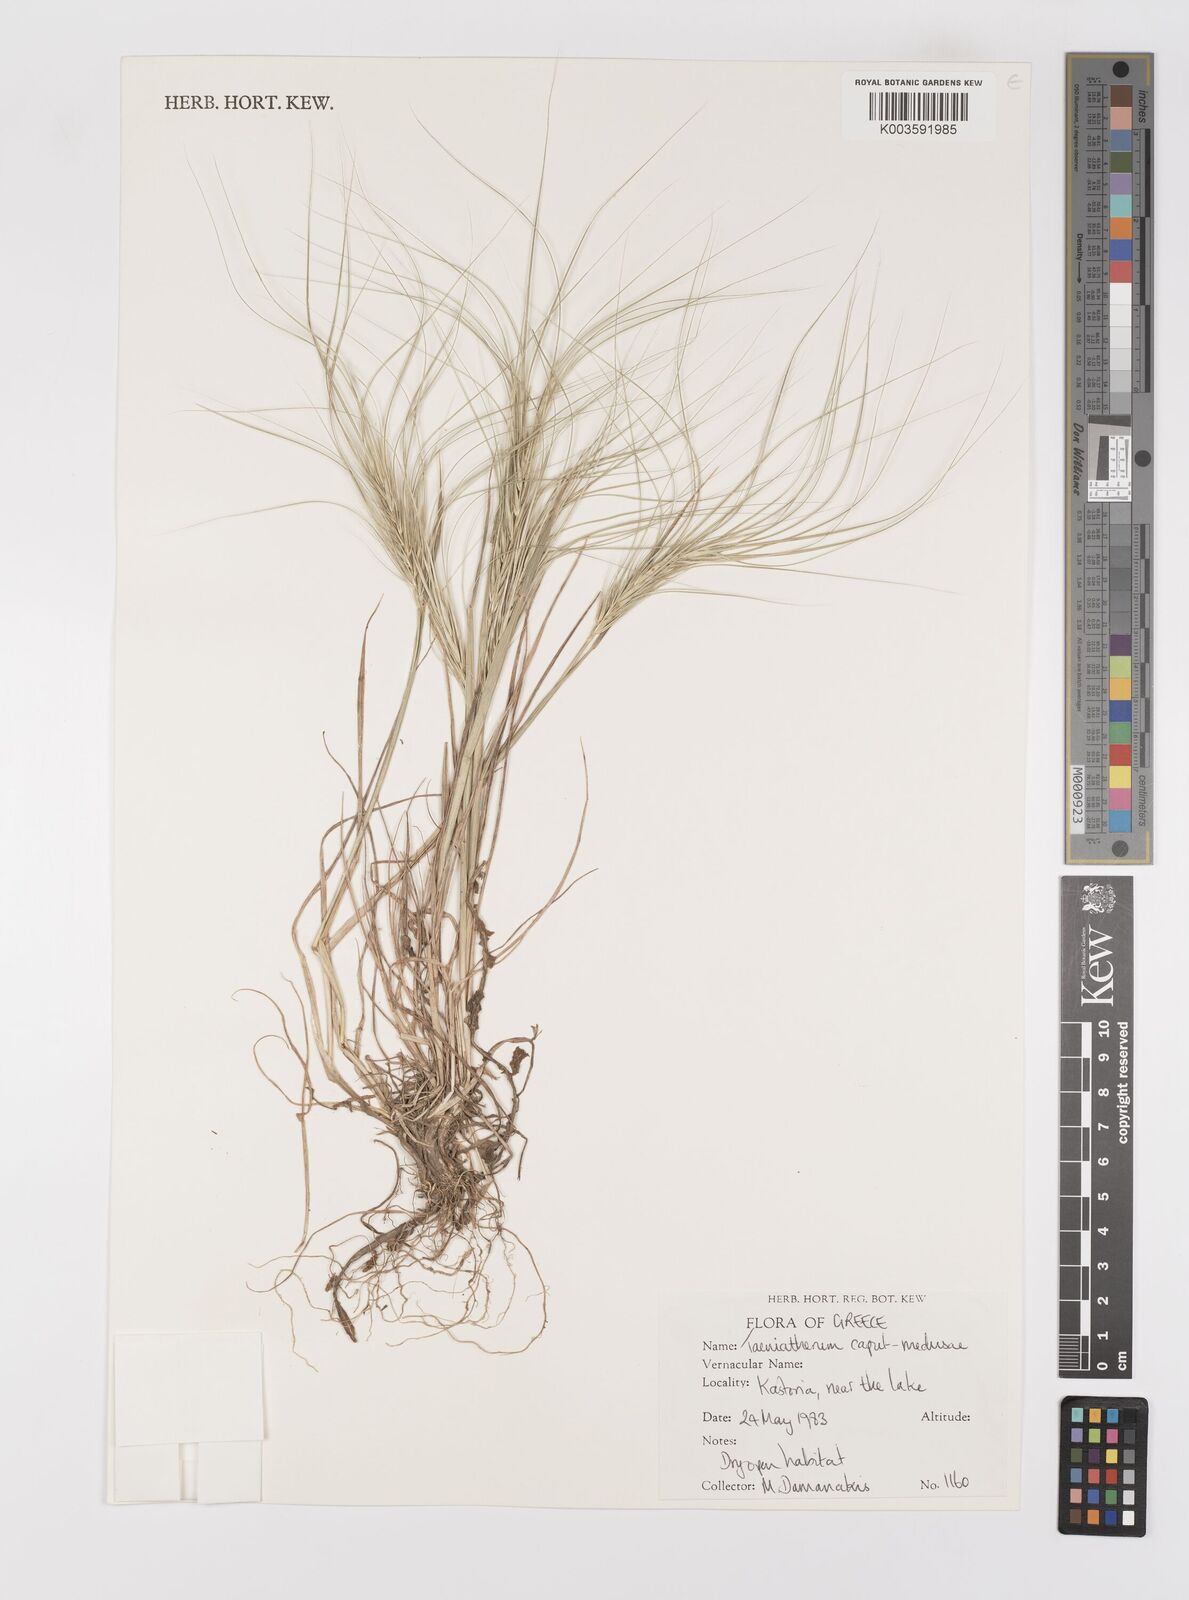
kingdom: Plantae
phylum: Tracheophyta
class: Liliopsida
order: Poales
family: Poaceae
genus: Taeniatherum
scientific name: Taeniatherum caput-medusae
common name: Medusahead
